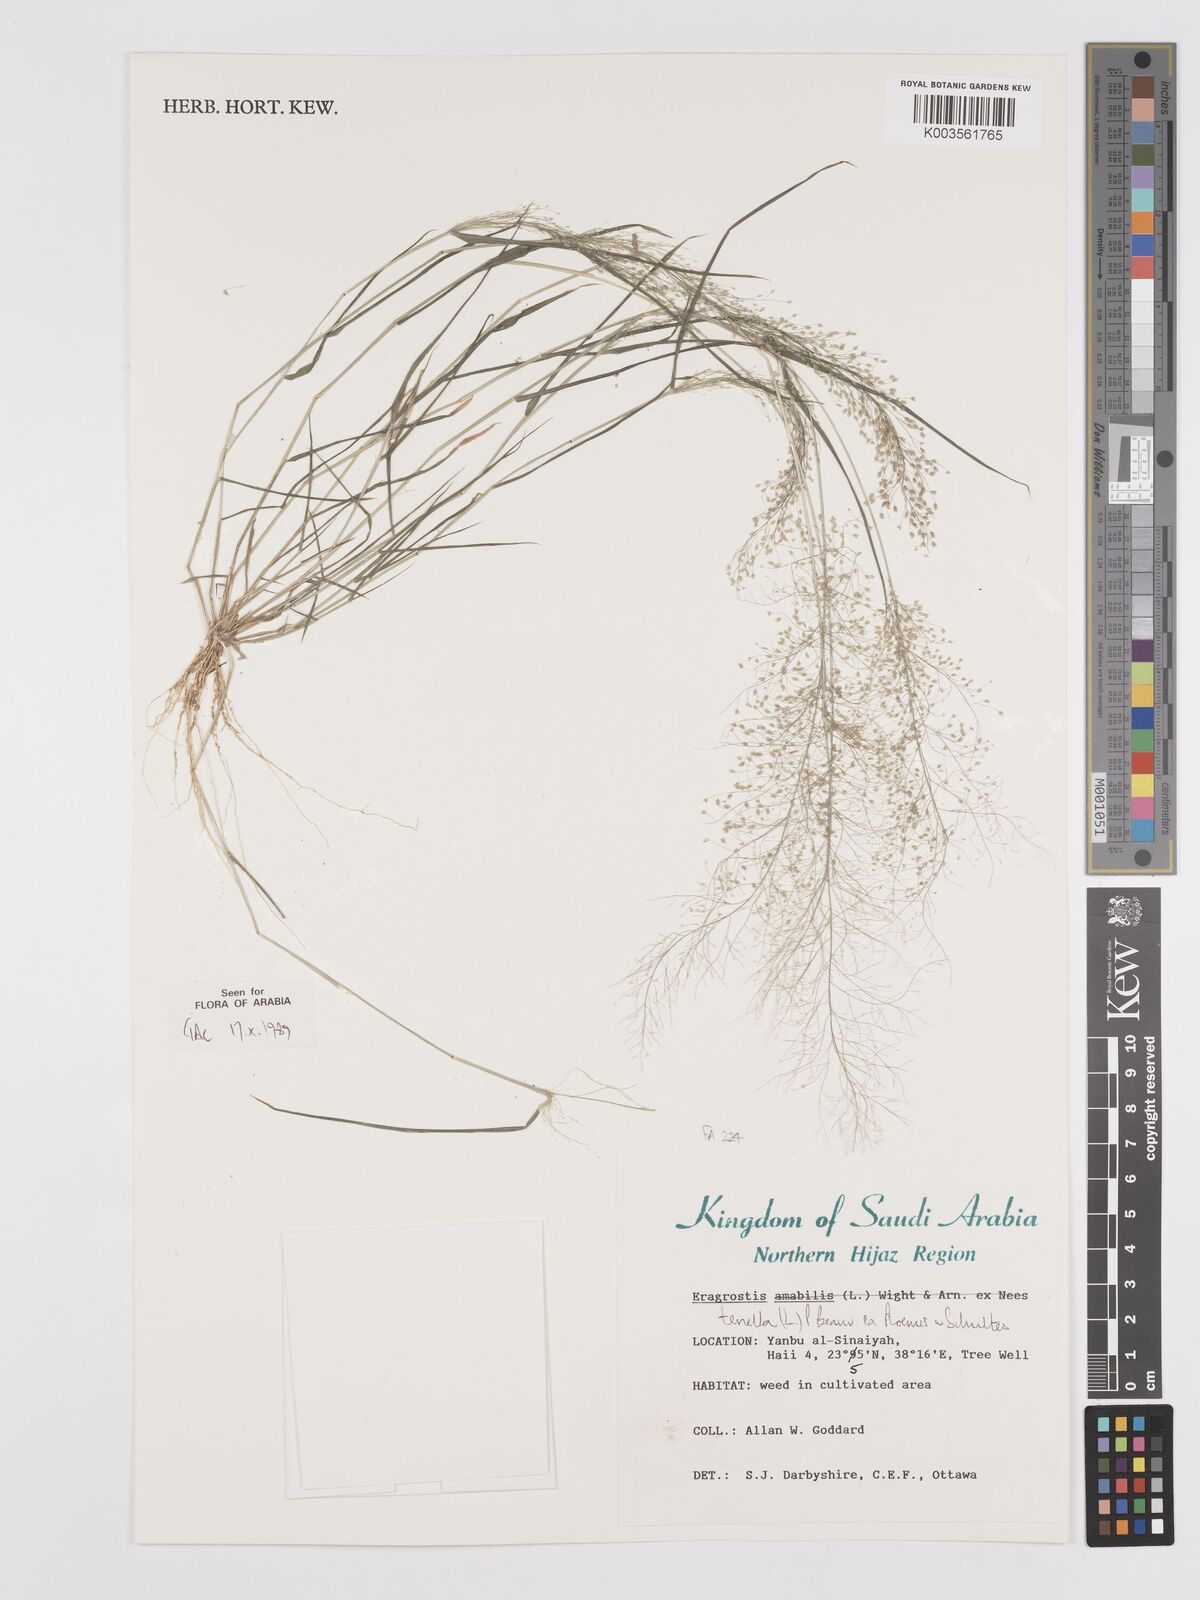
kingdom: Plantae
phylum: Tracheophyta
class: Liliopsida
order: Poales
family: Poaceae
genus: Eragrostis
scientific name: Eragrostis tenella
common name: Japanese lovegrass
